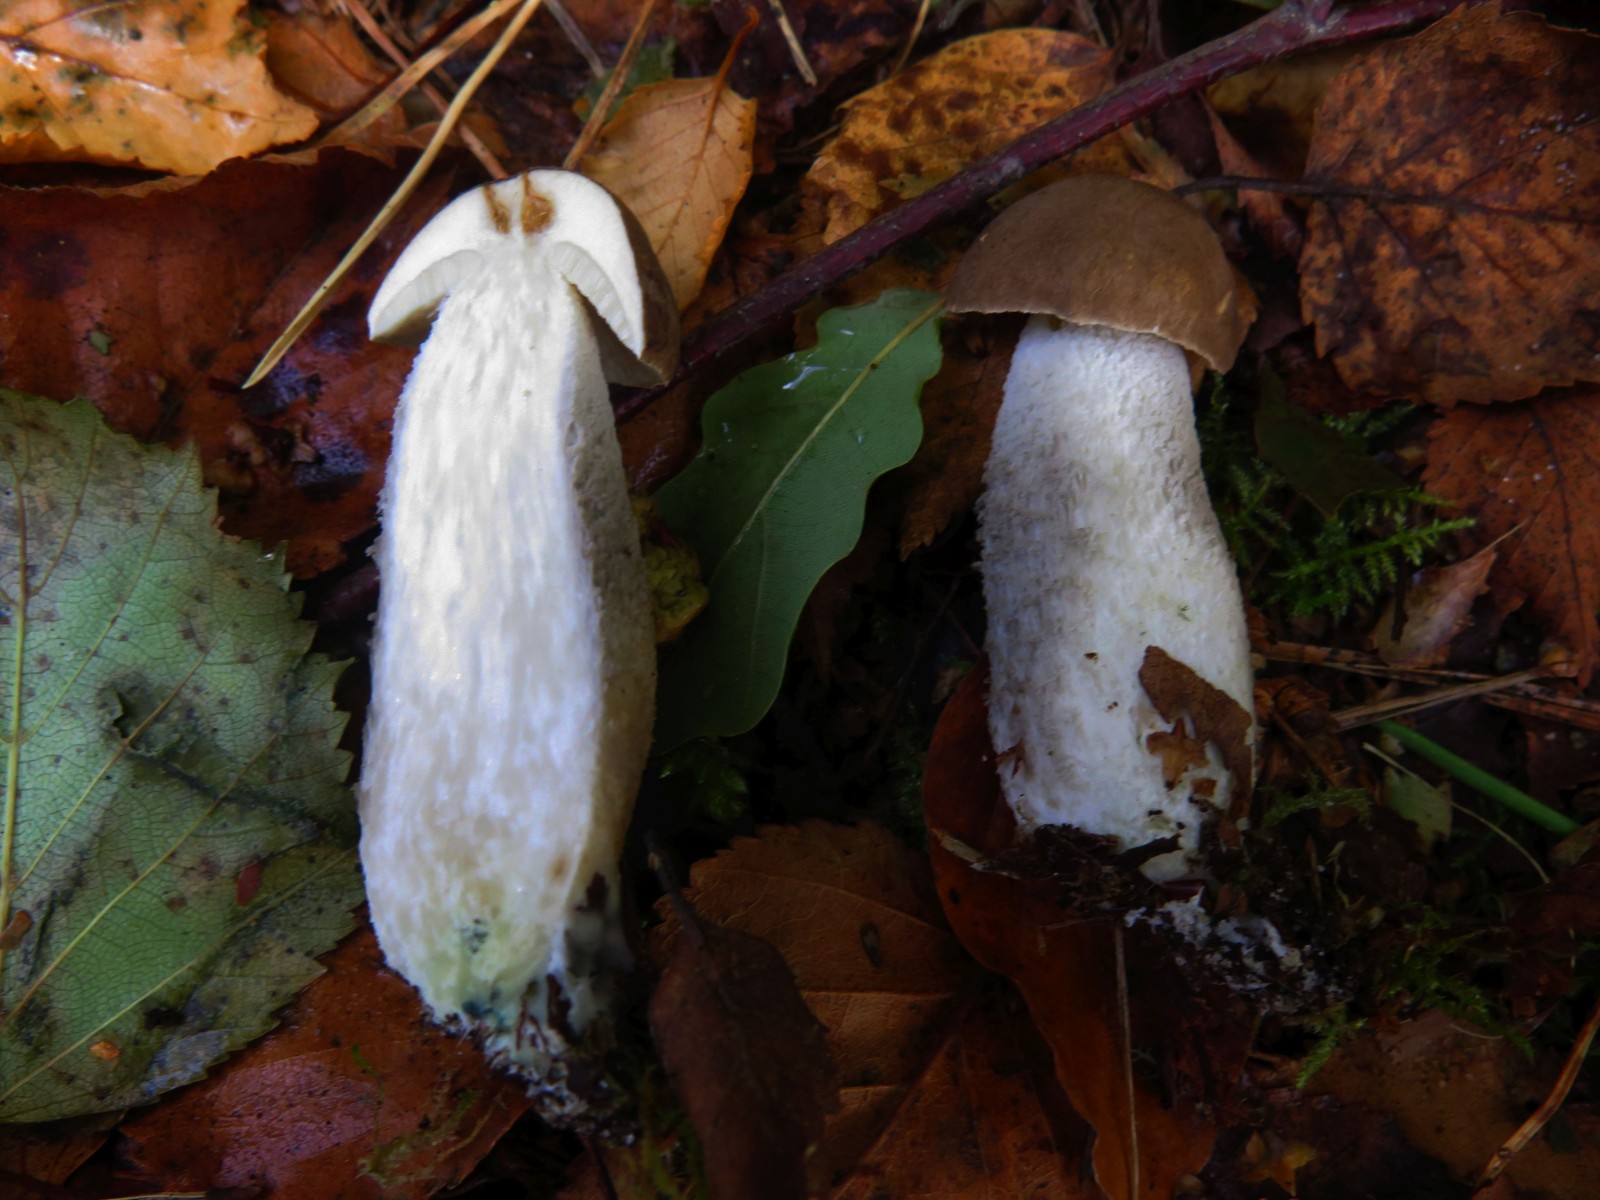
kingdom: Fungi
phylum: Basidiomycota
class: Agaricomycetes
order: Boletales
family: Boletaceae
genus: Leccinum
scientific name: Leccinum cyaneobasileucum
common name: almindelig skælrørhat
